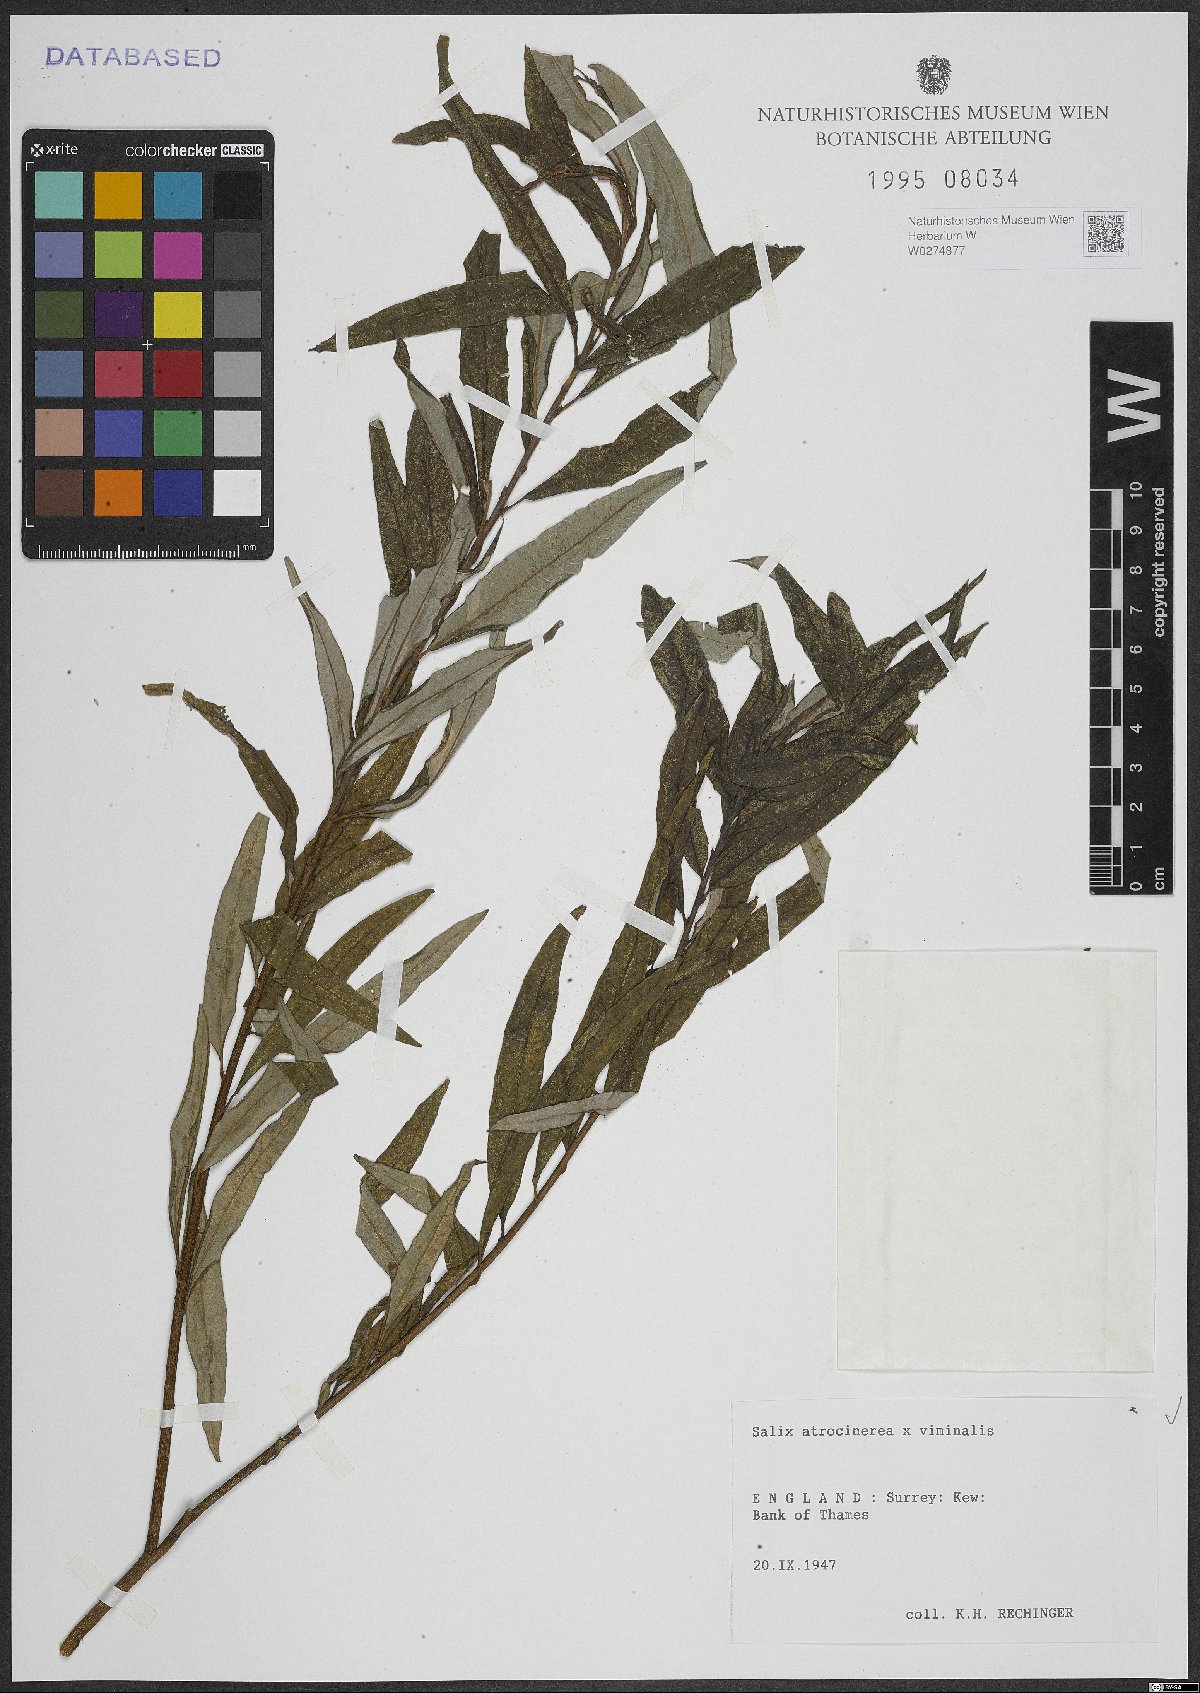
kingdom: Plantae
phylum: Tracheophyta
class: Magnoliopsida
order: Malpighiales
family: Salicaceae
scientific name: Salicaceae
